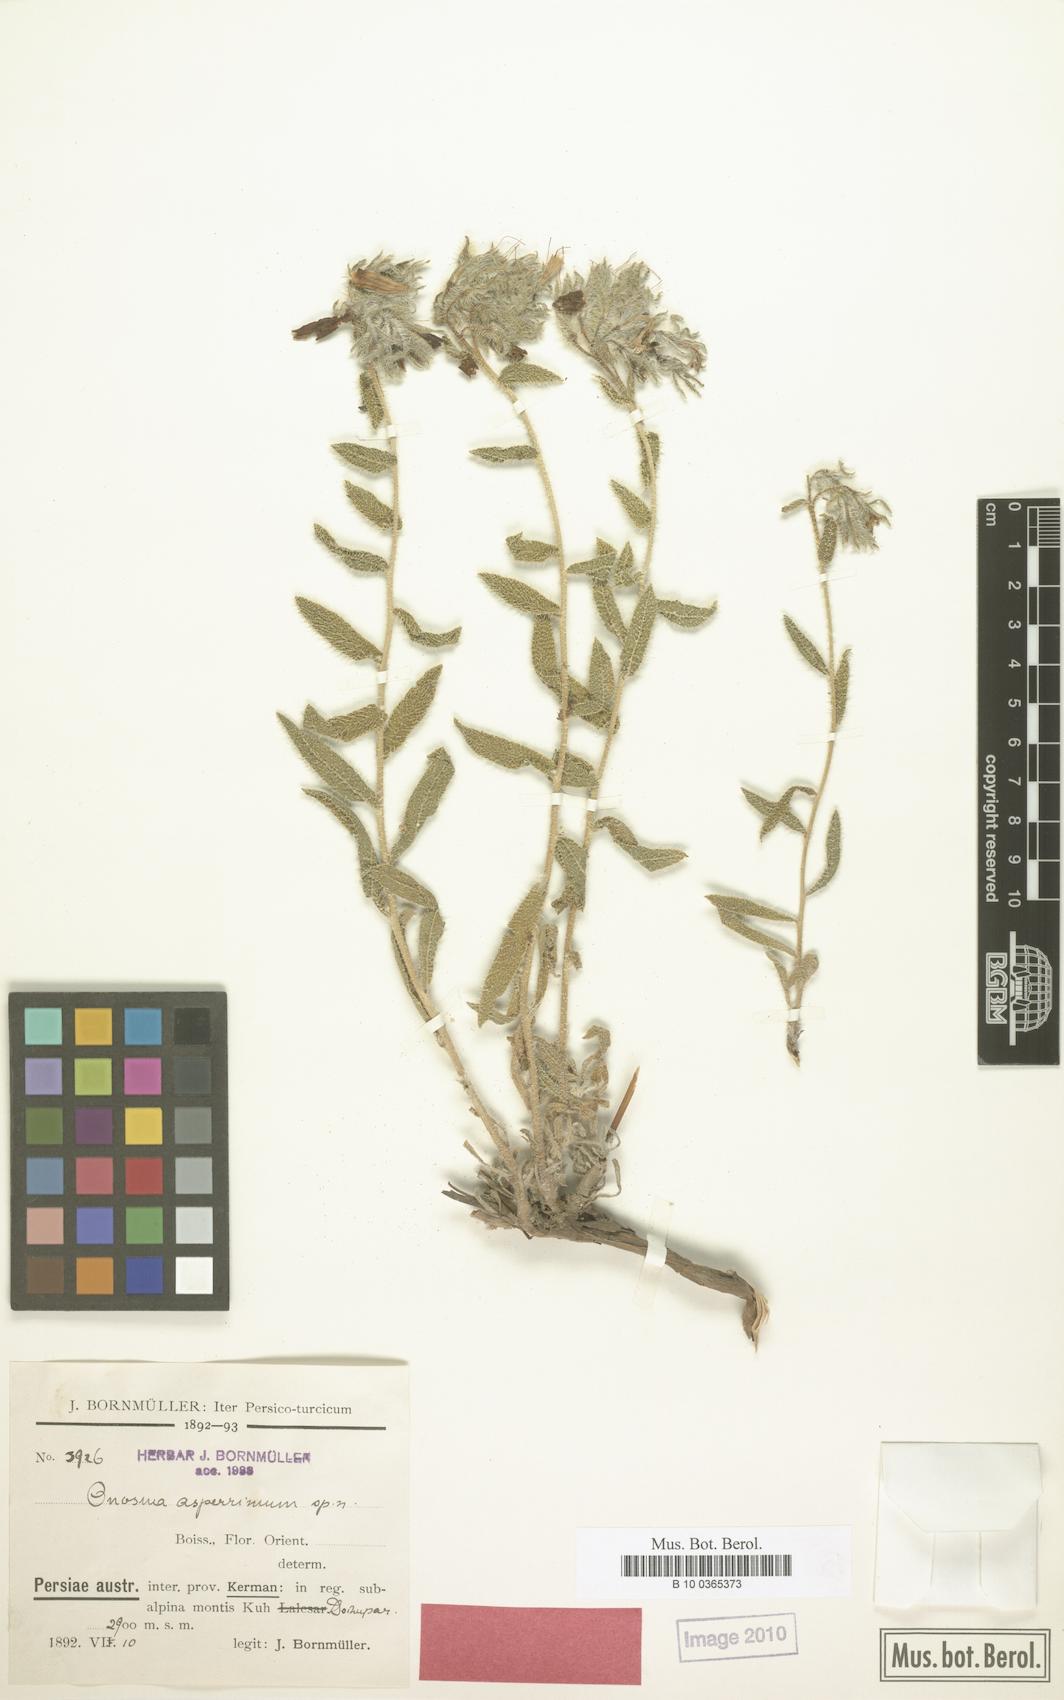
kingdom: Plantae
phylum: Tracheophyta
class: Magnoliopsida
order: Boraginales
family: Boraginaceae
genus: Onosma
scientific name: Onosma asperrima
